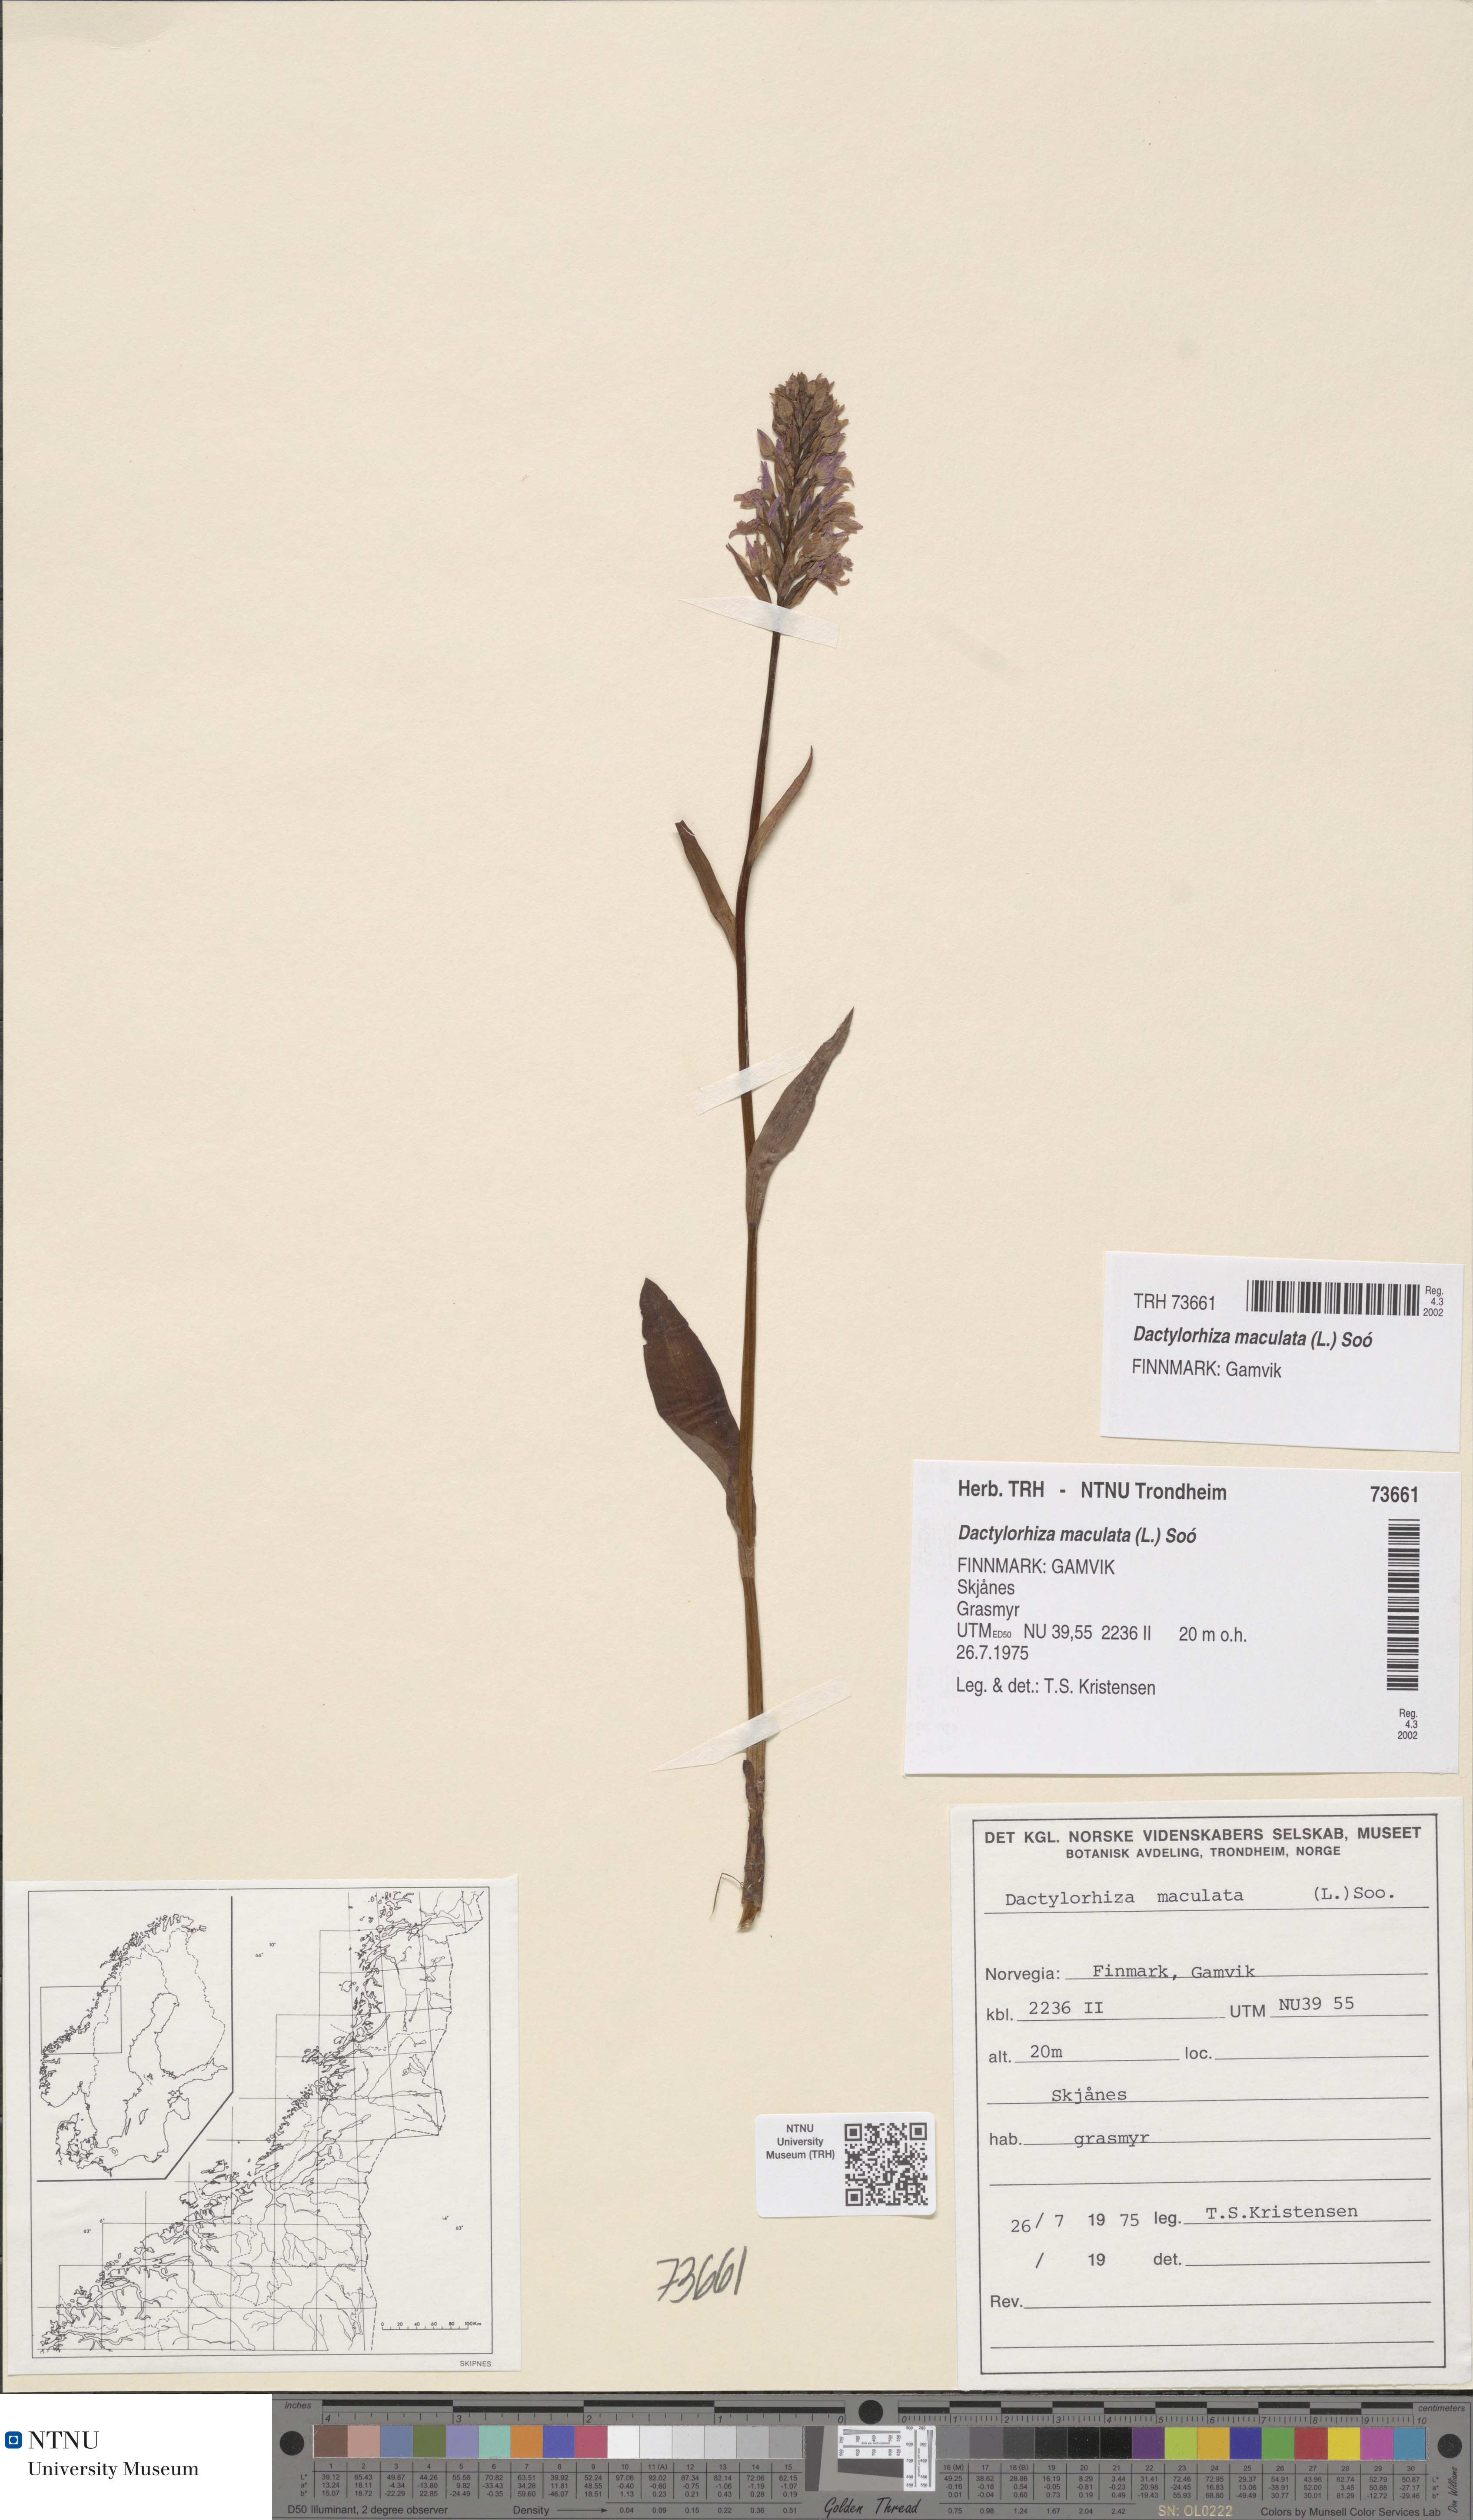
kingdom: Plantae
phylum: Tracheophyta
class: Liliopsida
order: Asparagales
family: Orchidaceae
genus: Dactylorhiza
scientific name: Dactylorhiza maculata
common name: Heath spotted-orchid
